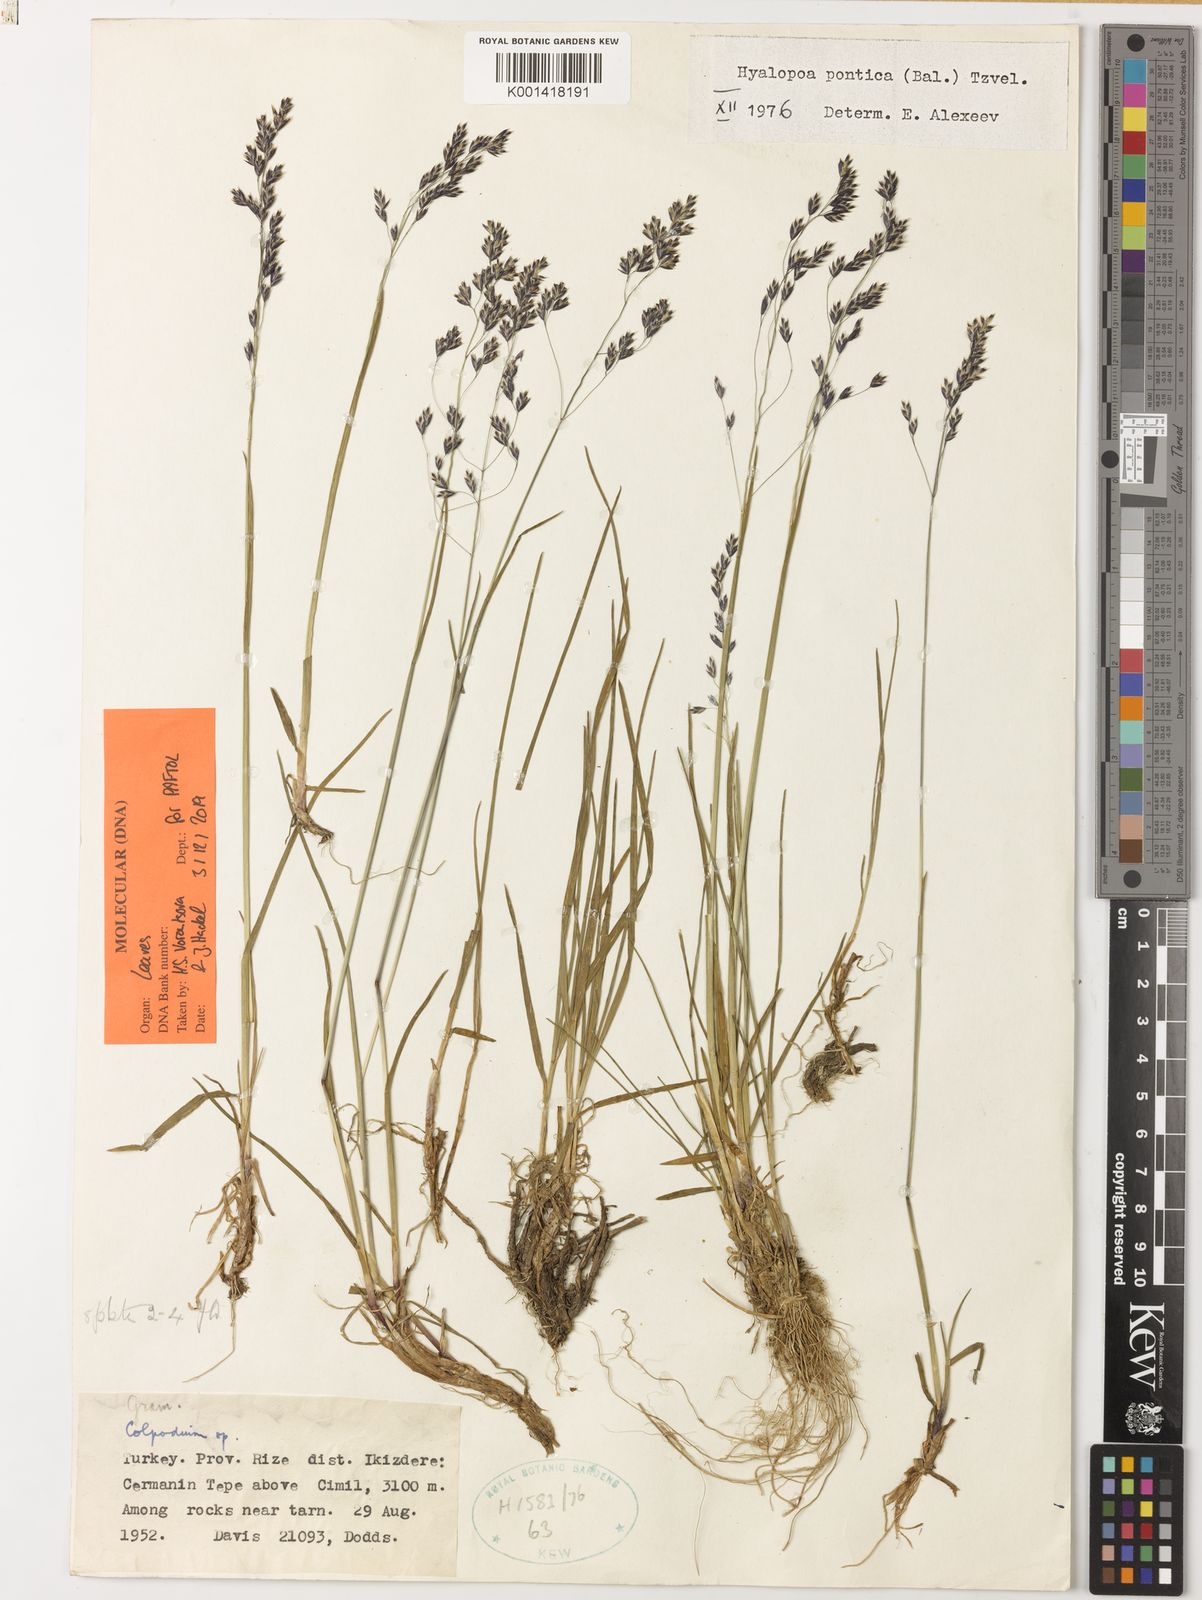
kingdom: Plantae
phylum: Tracheophyta
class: Liliopsida
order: Poales
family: Poaceae
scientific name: Poaceae
